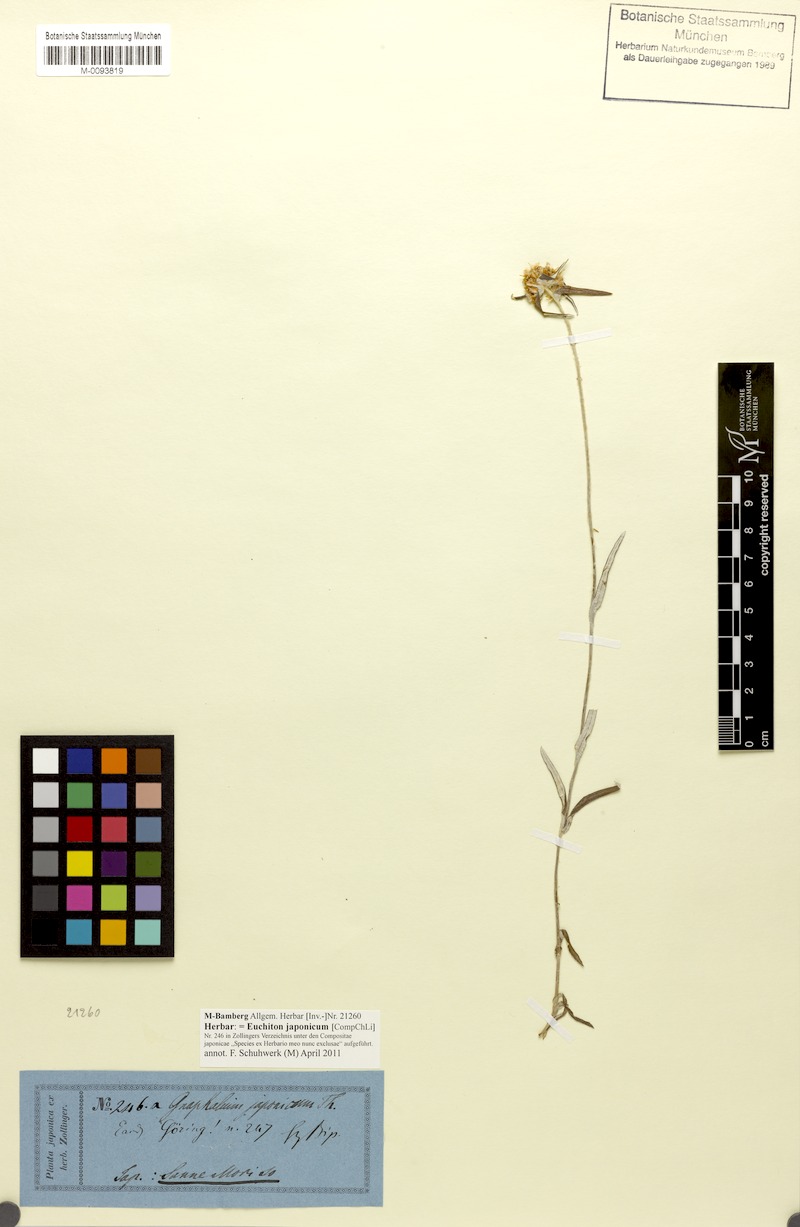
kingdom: Plantae
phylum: Tracheophyta
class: Magnoliopsida
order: Asterales
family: Asteraceae
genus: Euchiton
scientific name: Euchiton japonicus
